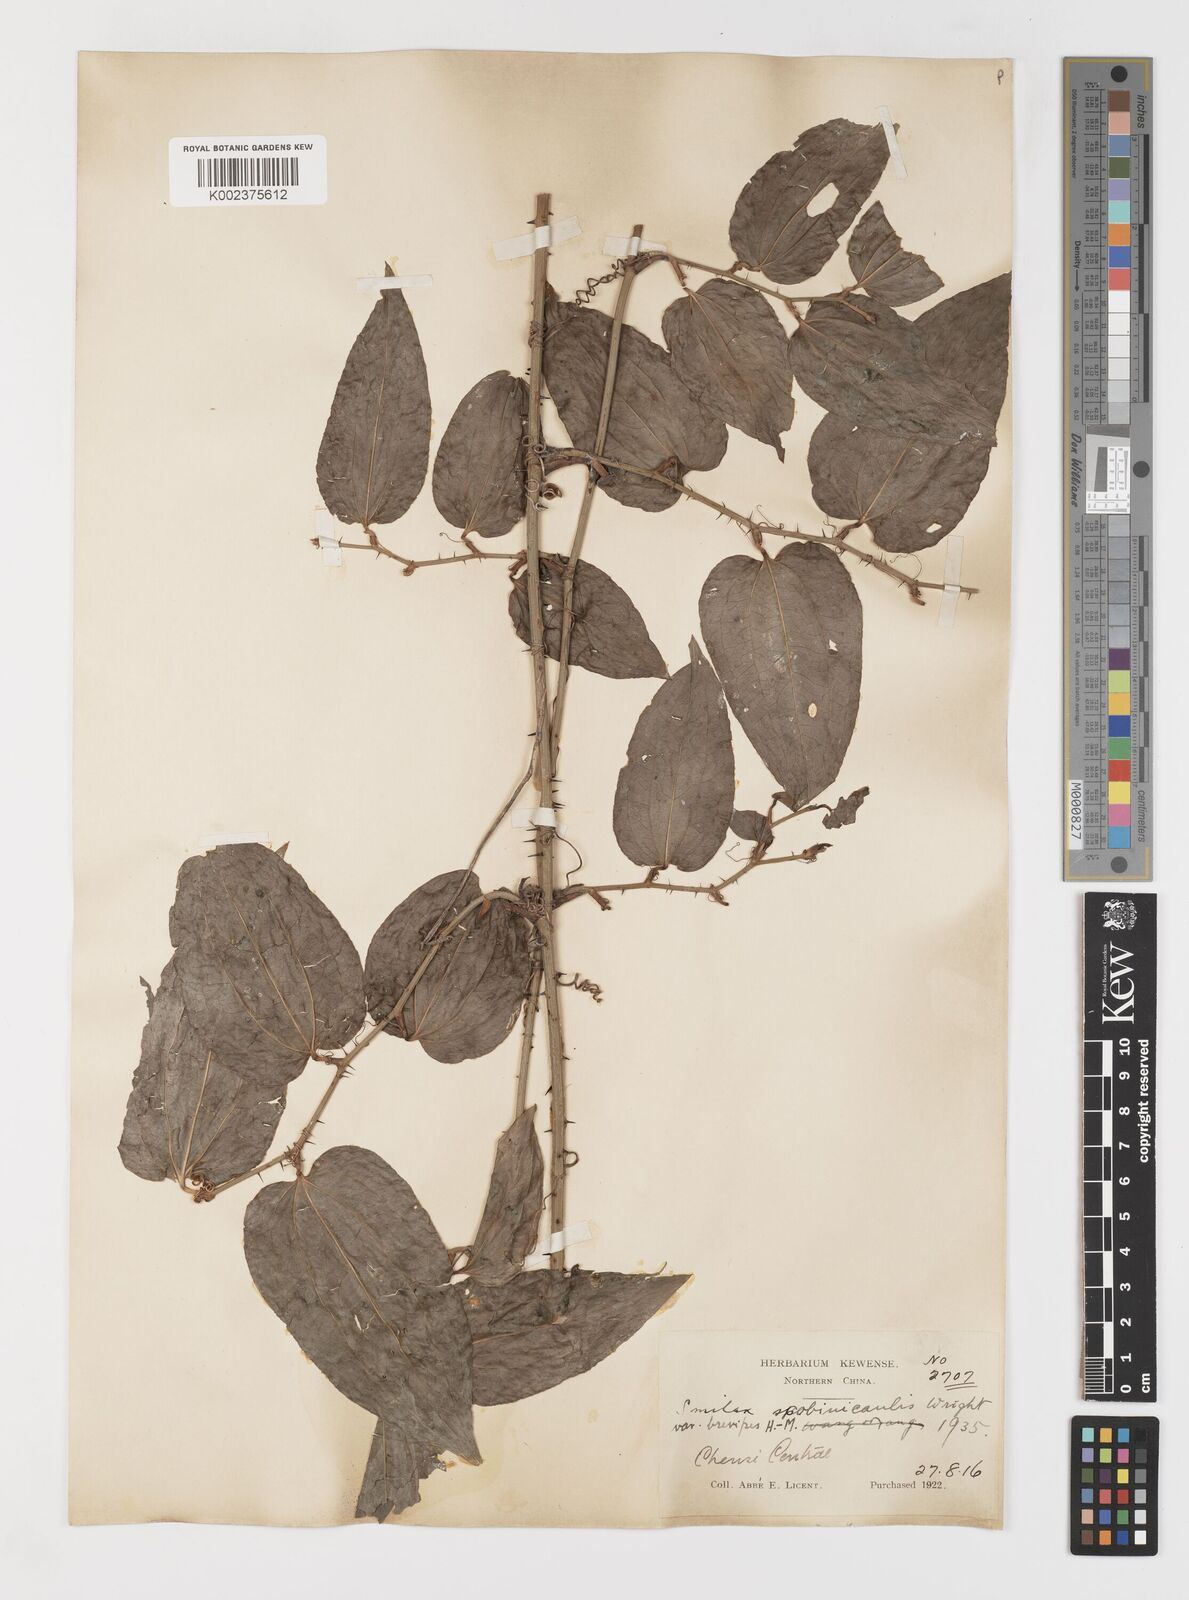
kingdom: Plantae
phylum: Tracheophyta
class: Liliopsida
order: Liliales
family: Smilacaceae
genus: Smilax
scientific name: Smilax scobinicaulis
